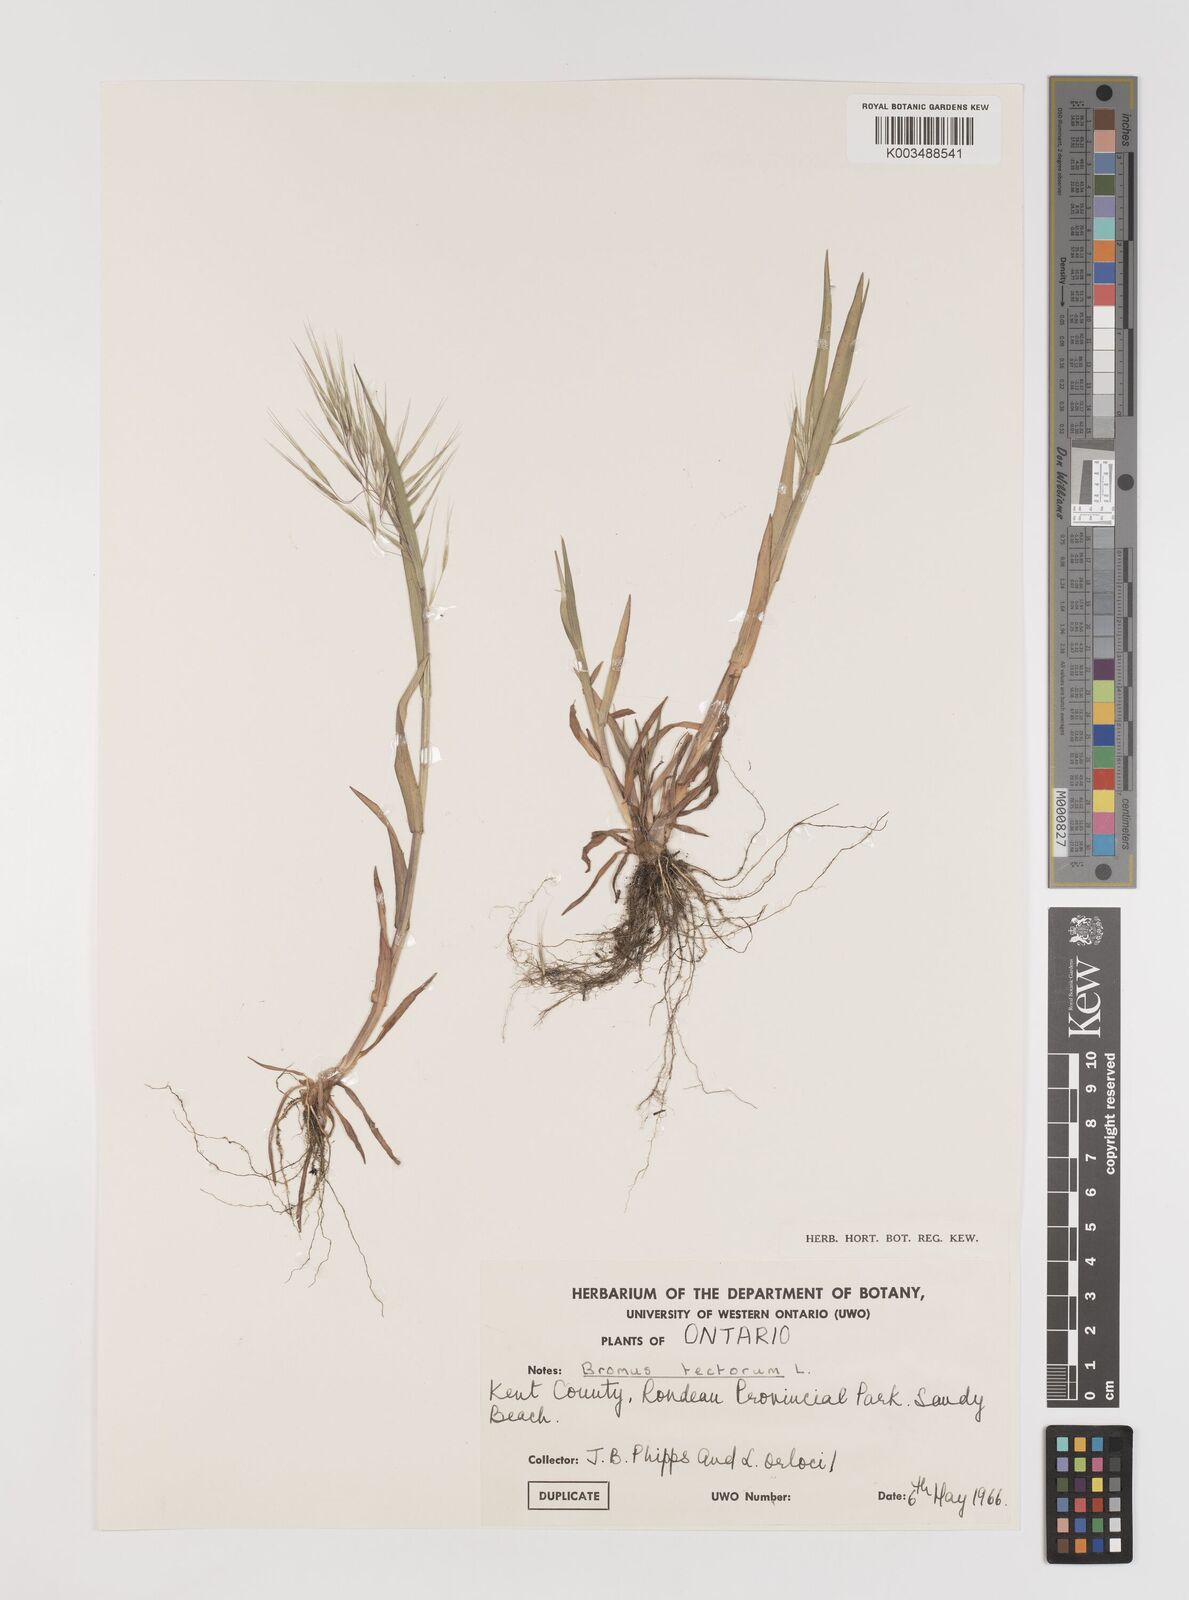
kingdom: Plantae
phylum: Tracheophyta
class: Liliopsida
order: Poales
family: Poaceae
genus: Bromus
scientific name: Bromus tectorum
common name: Cheatgrass
